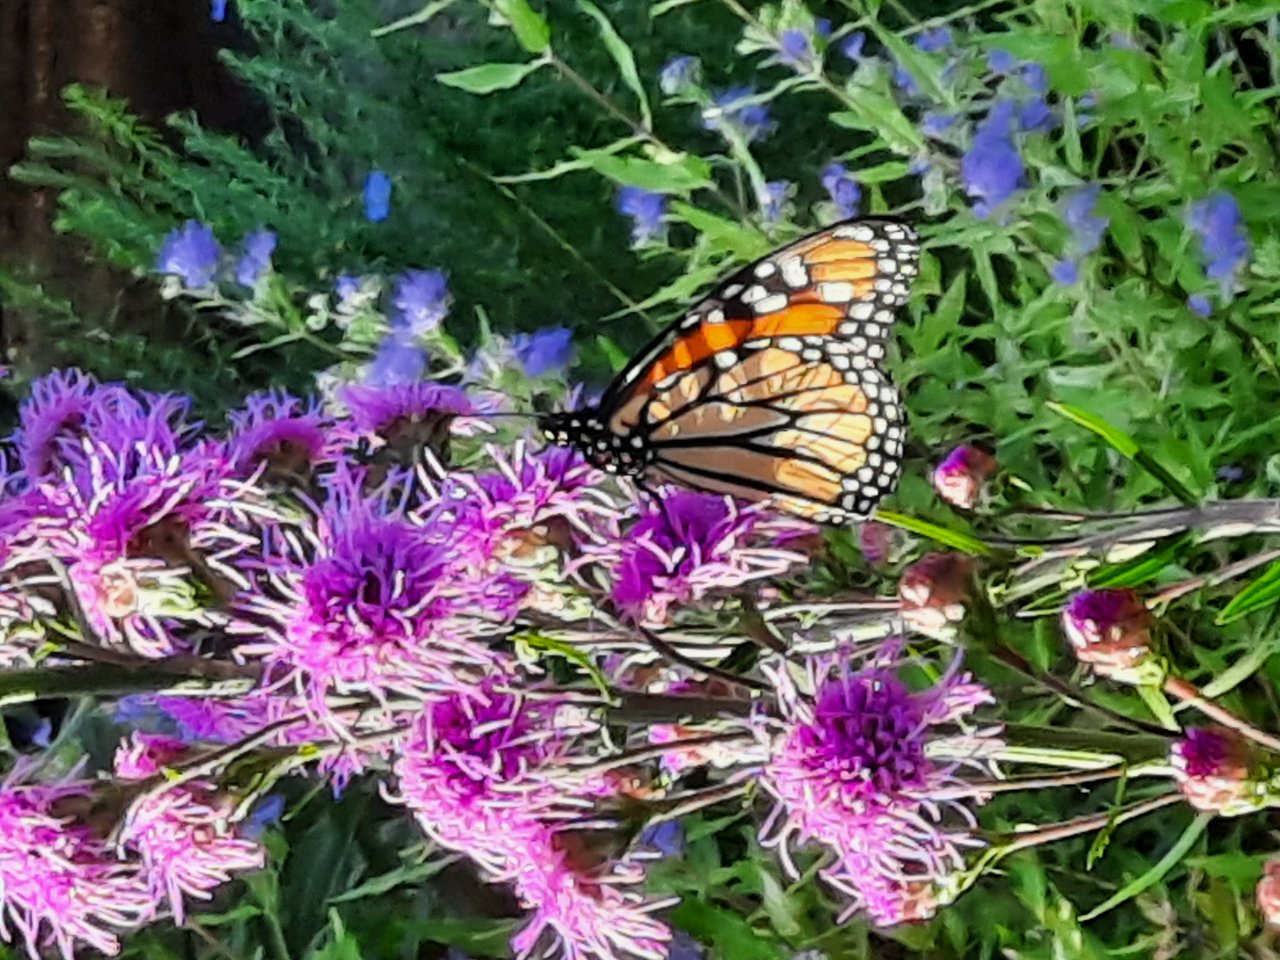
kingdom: Animalia
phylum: Arthropoda
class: Insecta
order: Lepidoptera
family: Nymphalidae
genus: Danaus
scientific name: Danaus plexippus
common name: Monarch
